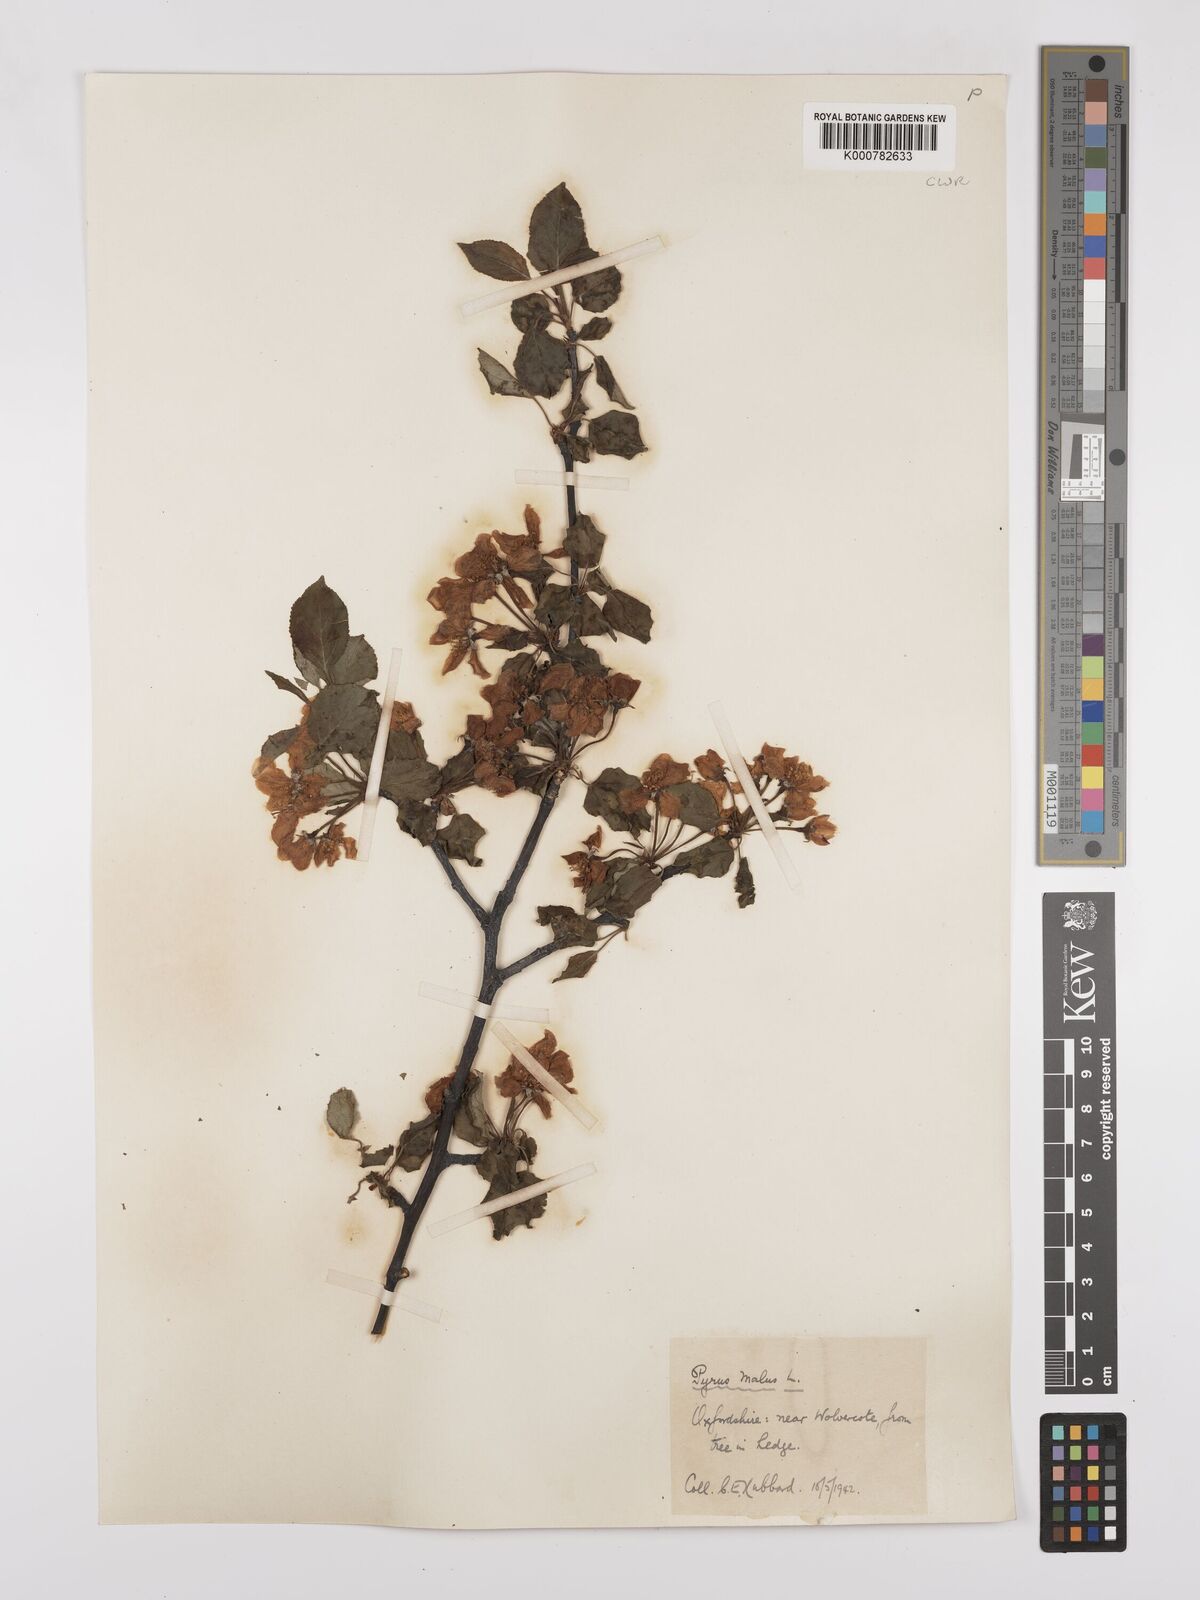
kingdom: Plantae
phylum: Tracheophyta
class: Magnoliopsida
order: Rosales
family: Rosaceae
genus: Malus
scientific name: Malus domestica
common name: Apple
